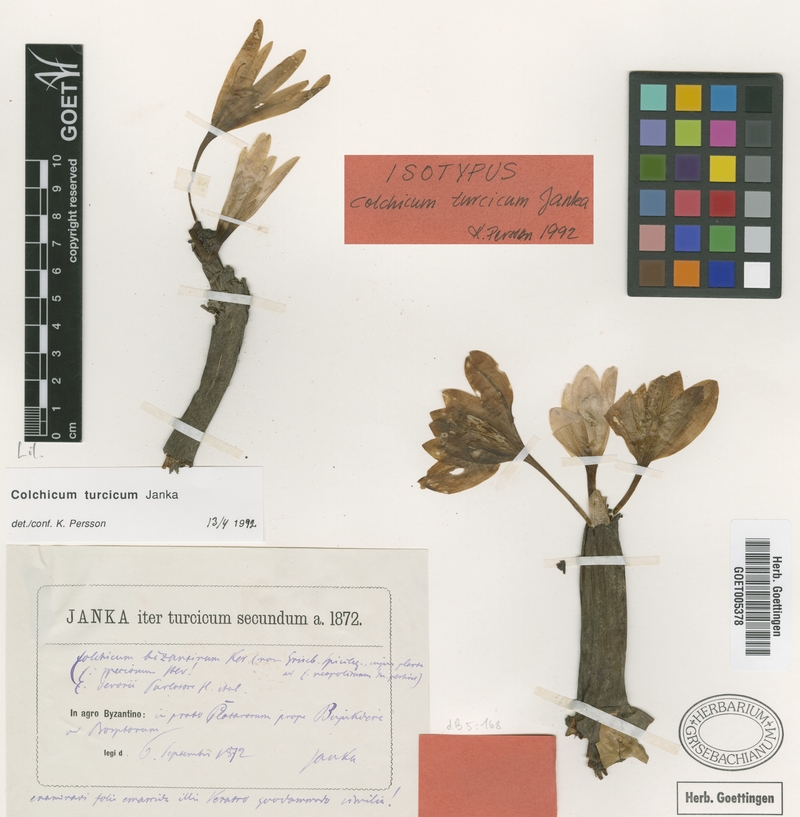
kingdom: Plantae
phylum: Tracheophyta
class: Liliopsida
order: Liliales
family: Colchicaceae
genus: Colchicum
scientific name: Colchicum turcicum
